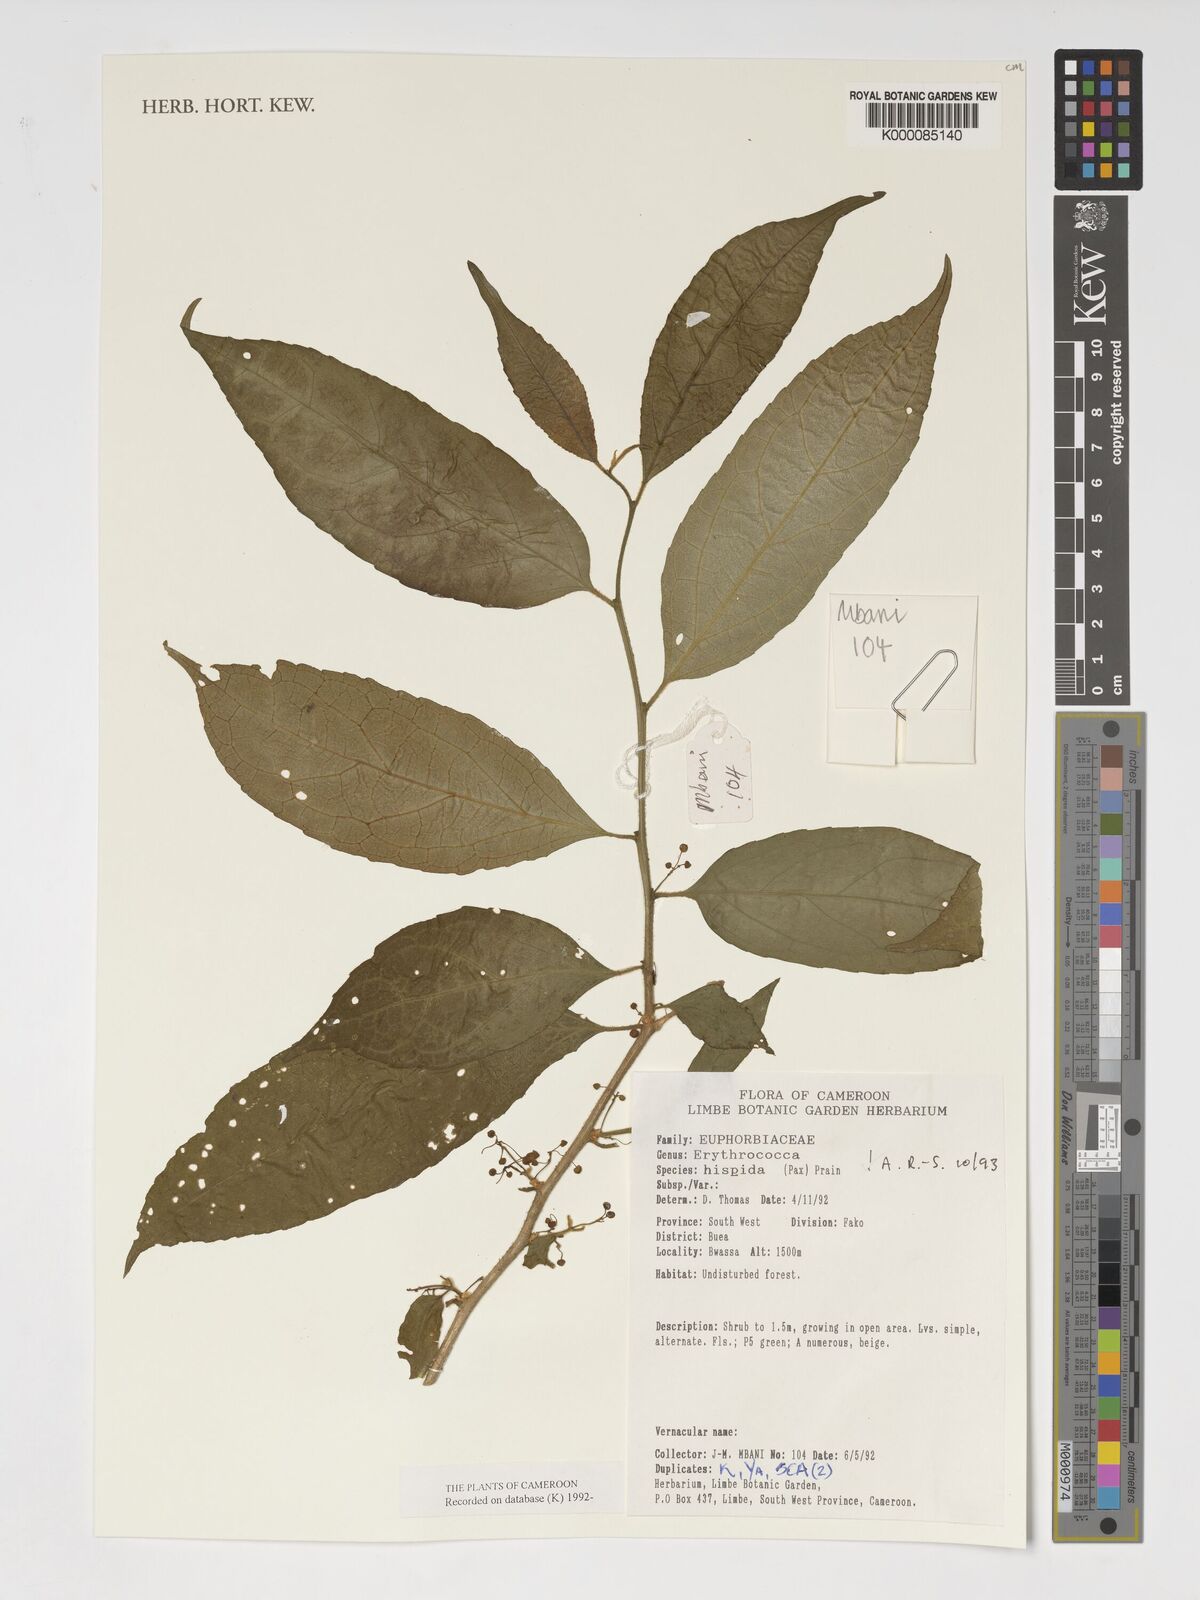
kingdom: Plantae
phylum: Tracheophyta
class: Magnoliopsida
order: Malpighiales
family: Euphorbiaceae
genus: Erythrococca
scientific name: Erythrococca hispida
